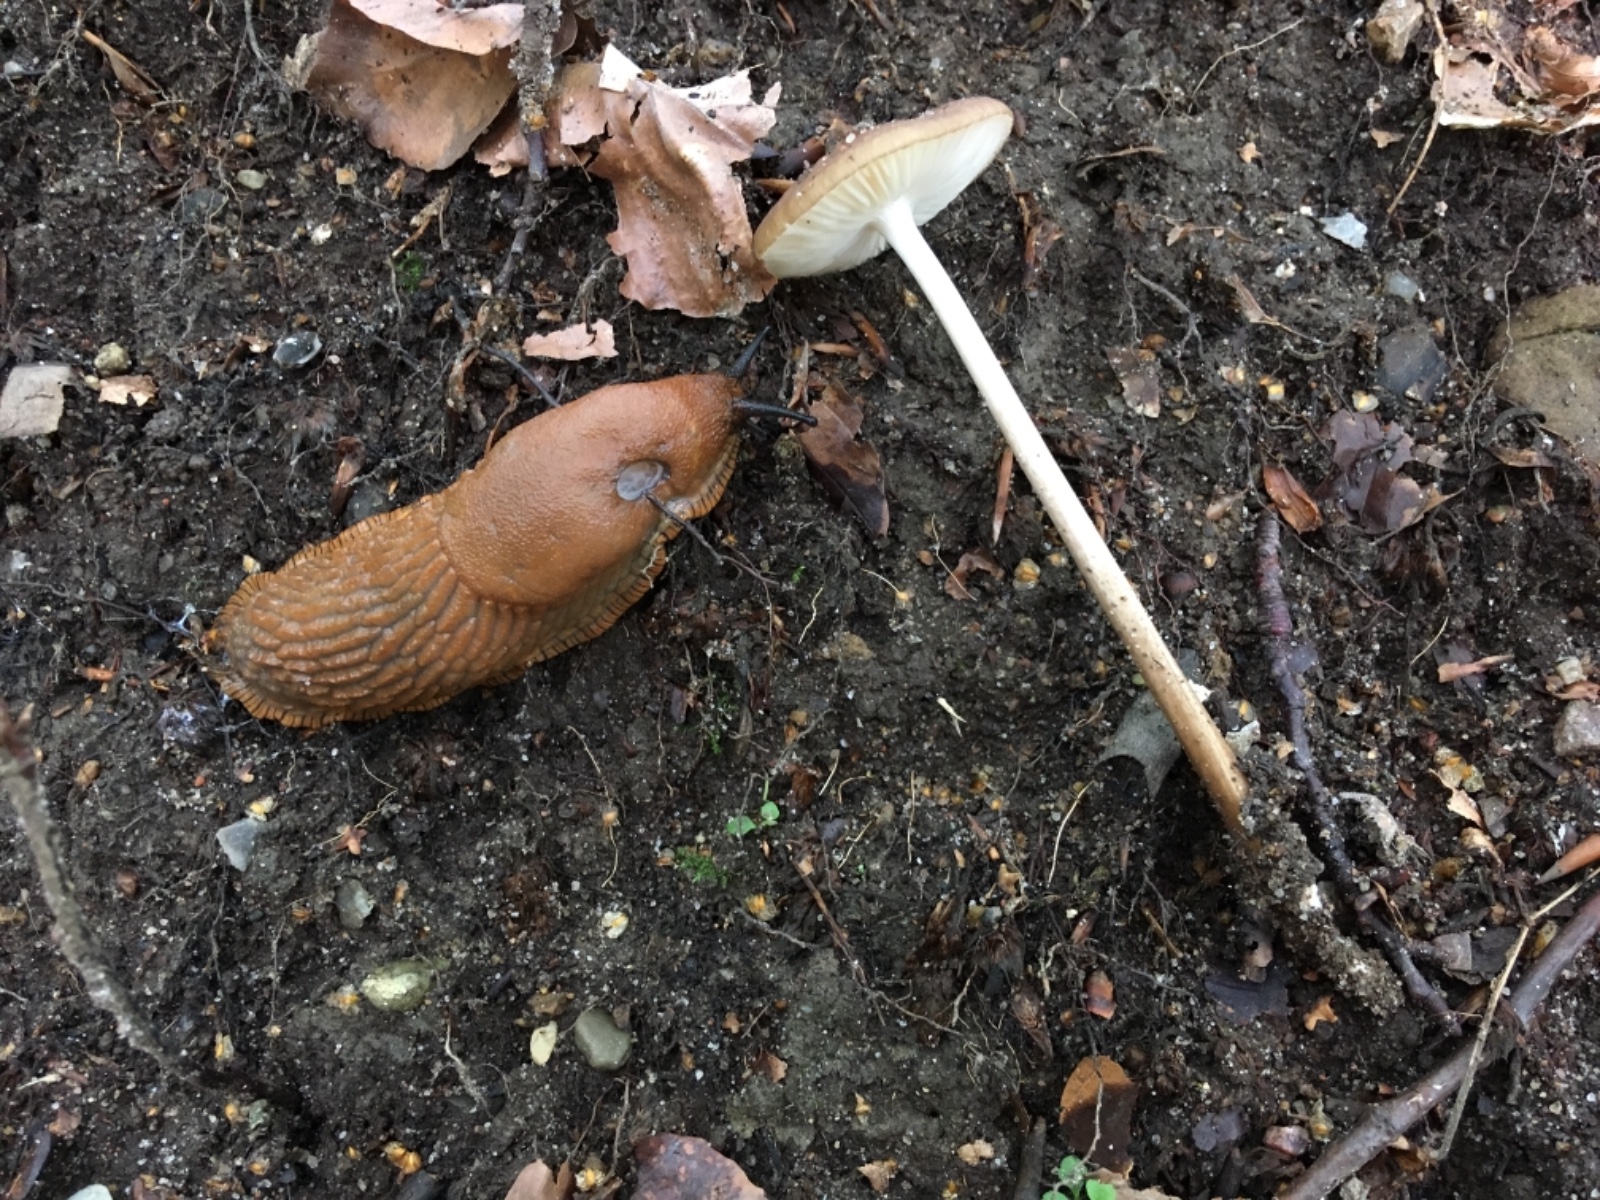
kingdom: Fungi
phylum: Basidiomycota
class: Agaricomycetes
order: Agaricales
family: Physalacriaceae
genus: Hymenopellis
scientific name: Hymenopellis radicata
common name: almindelig pælerodshat
